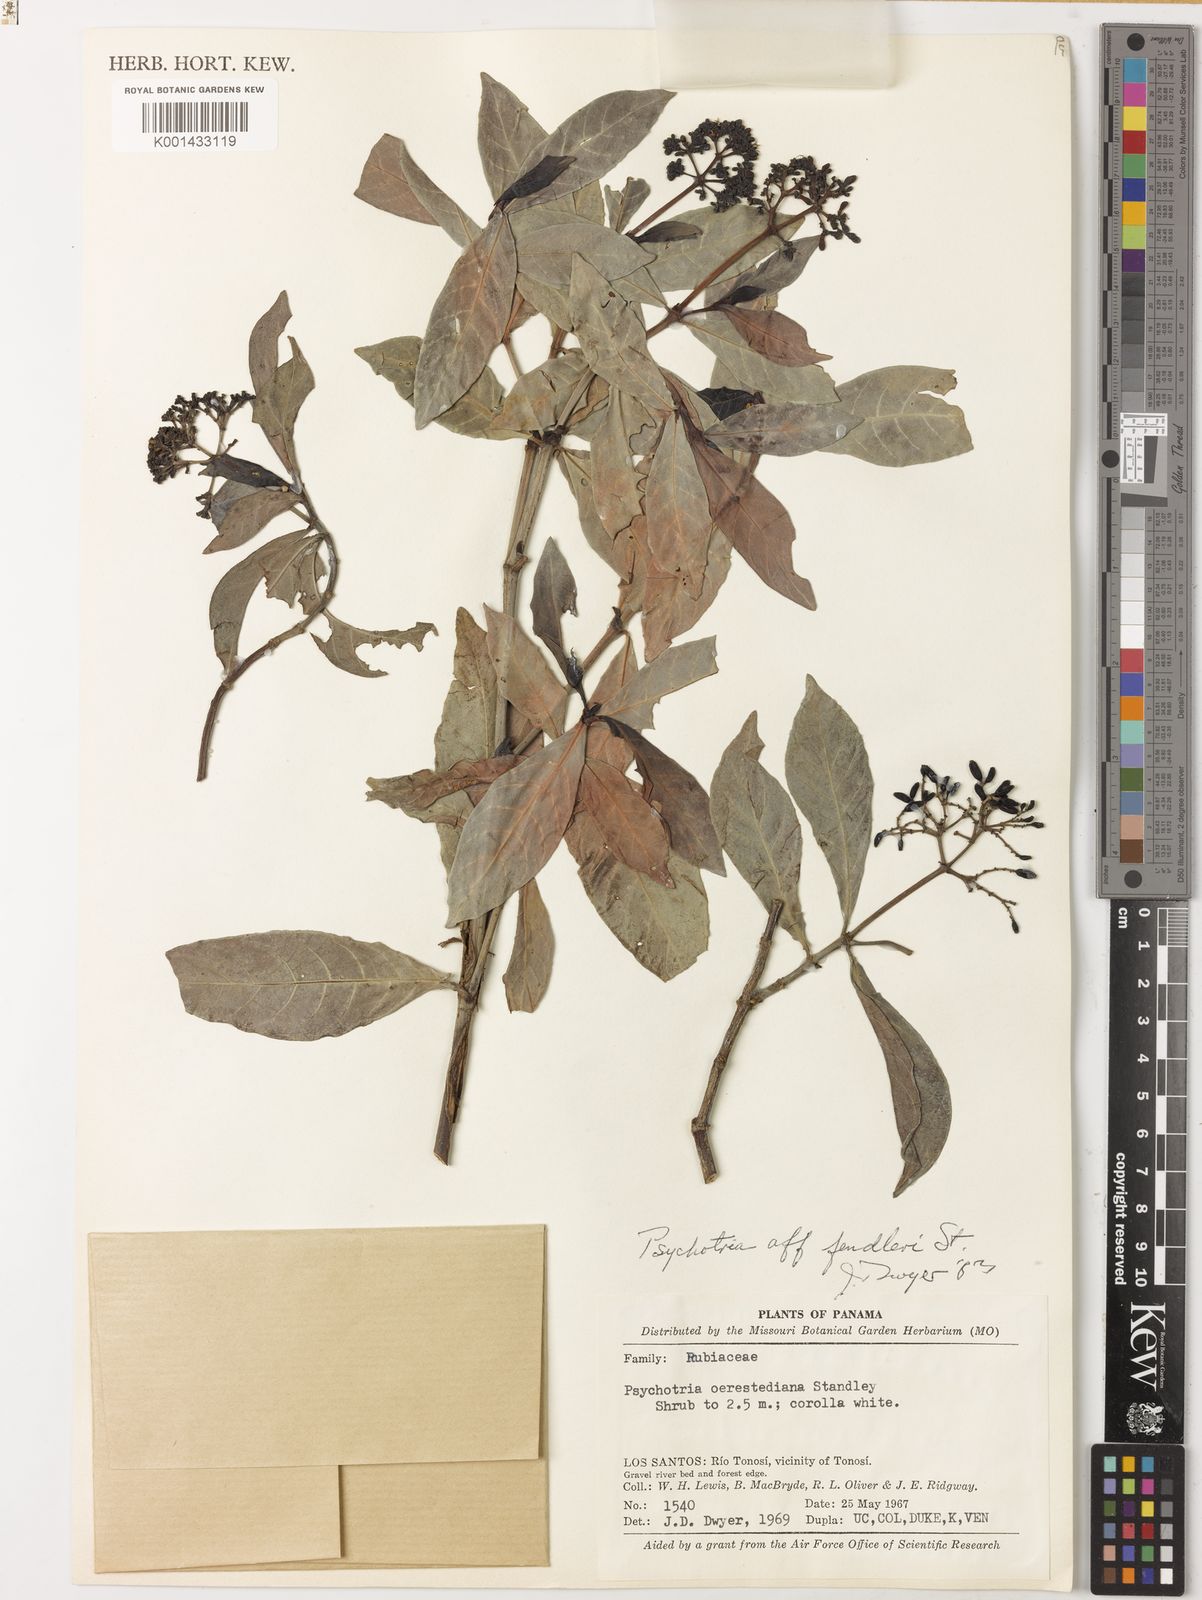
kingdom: Plantae
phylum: Tracheophyta
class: Magnoliopsida
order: Gentianales
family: Rubiaceae
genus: Psychotria
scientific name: Psychotria subsessilis
